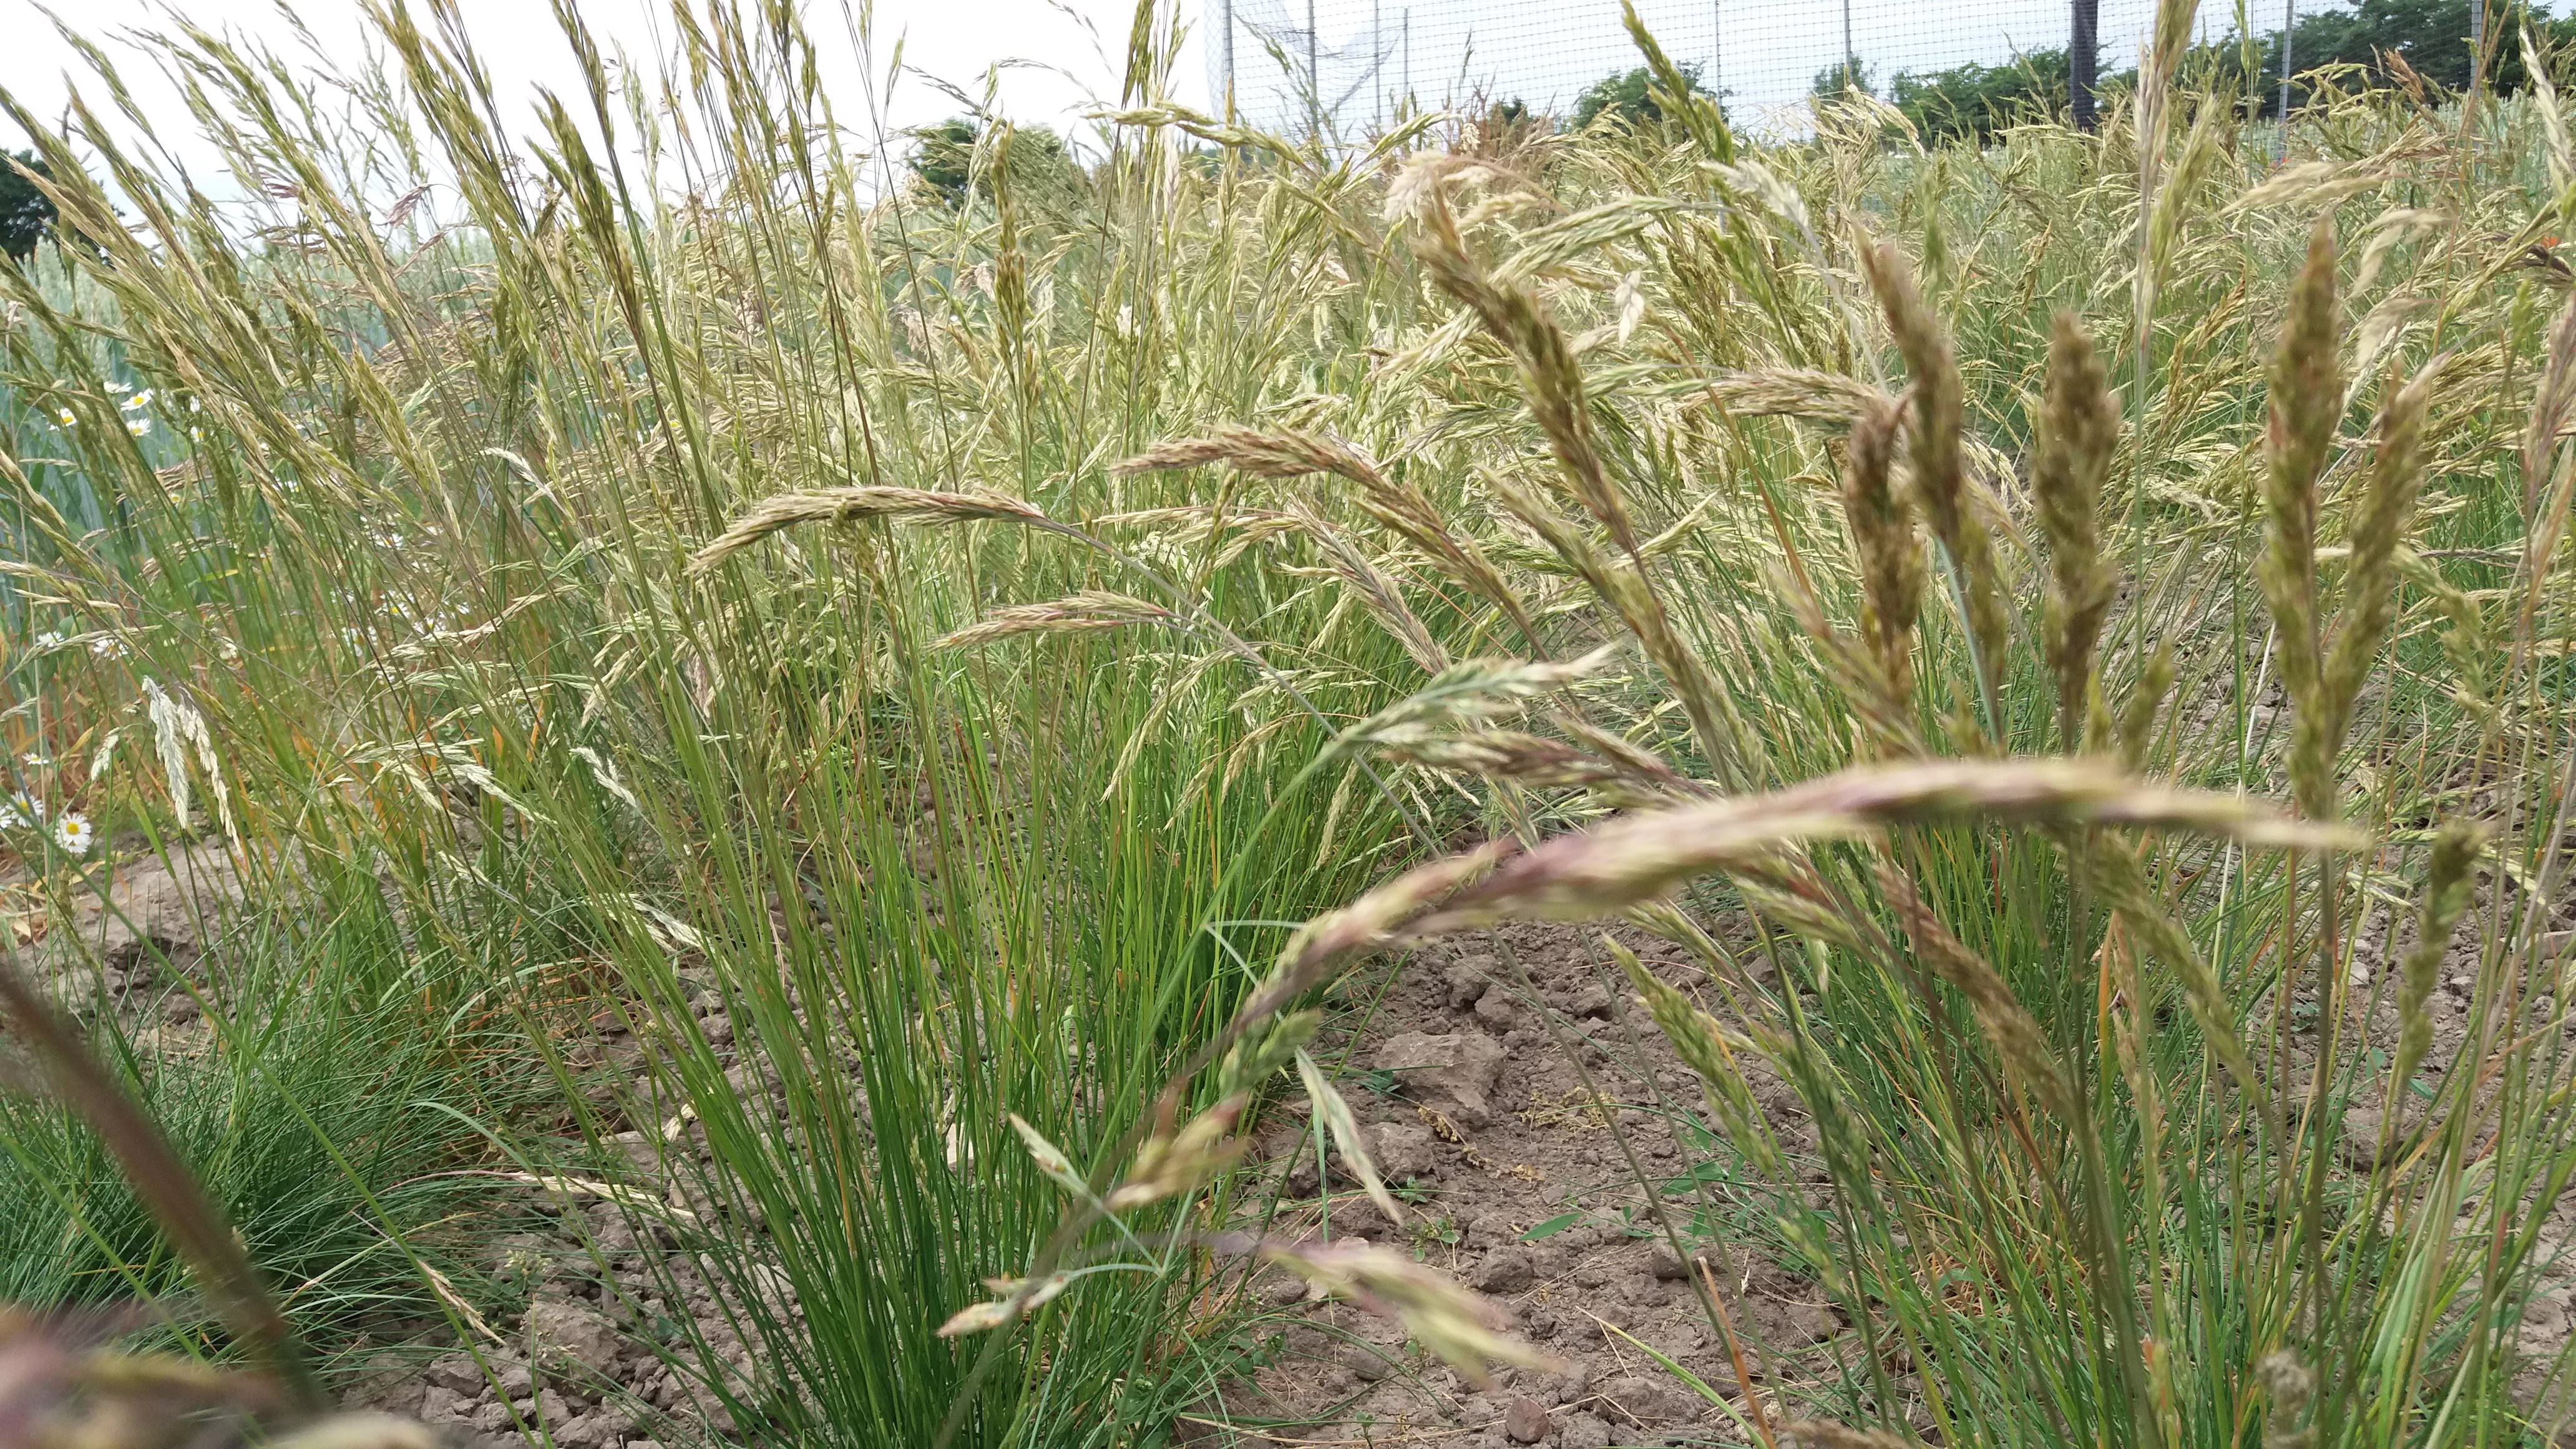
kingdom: Plantae
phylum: Tracheophyta
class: Liliopsida
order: Poales
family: Poaceae
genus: Festuca
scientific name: Festuca rubra
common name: Red fescue
